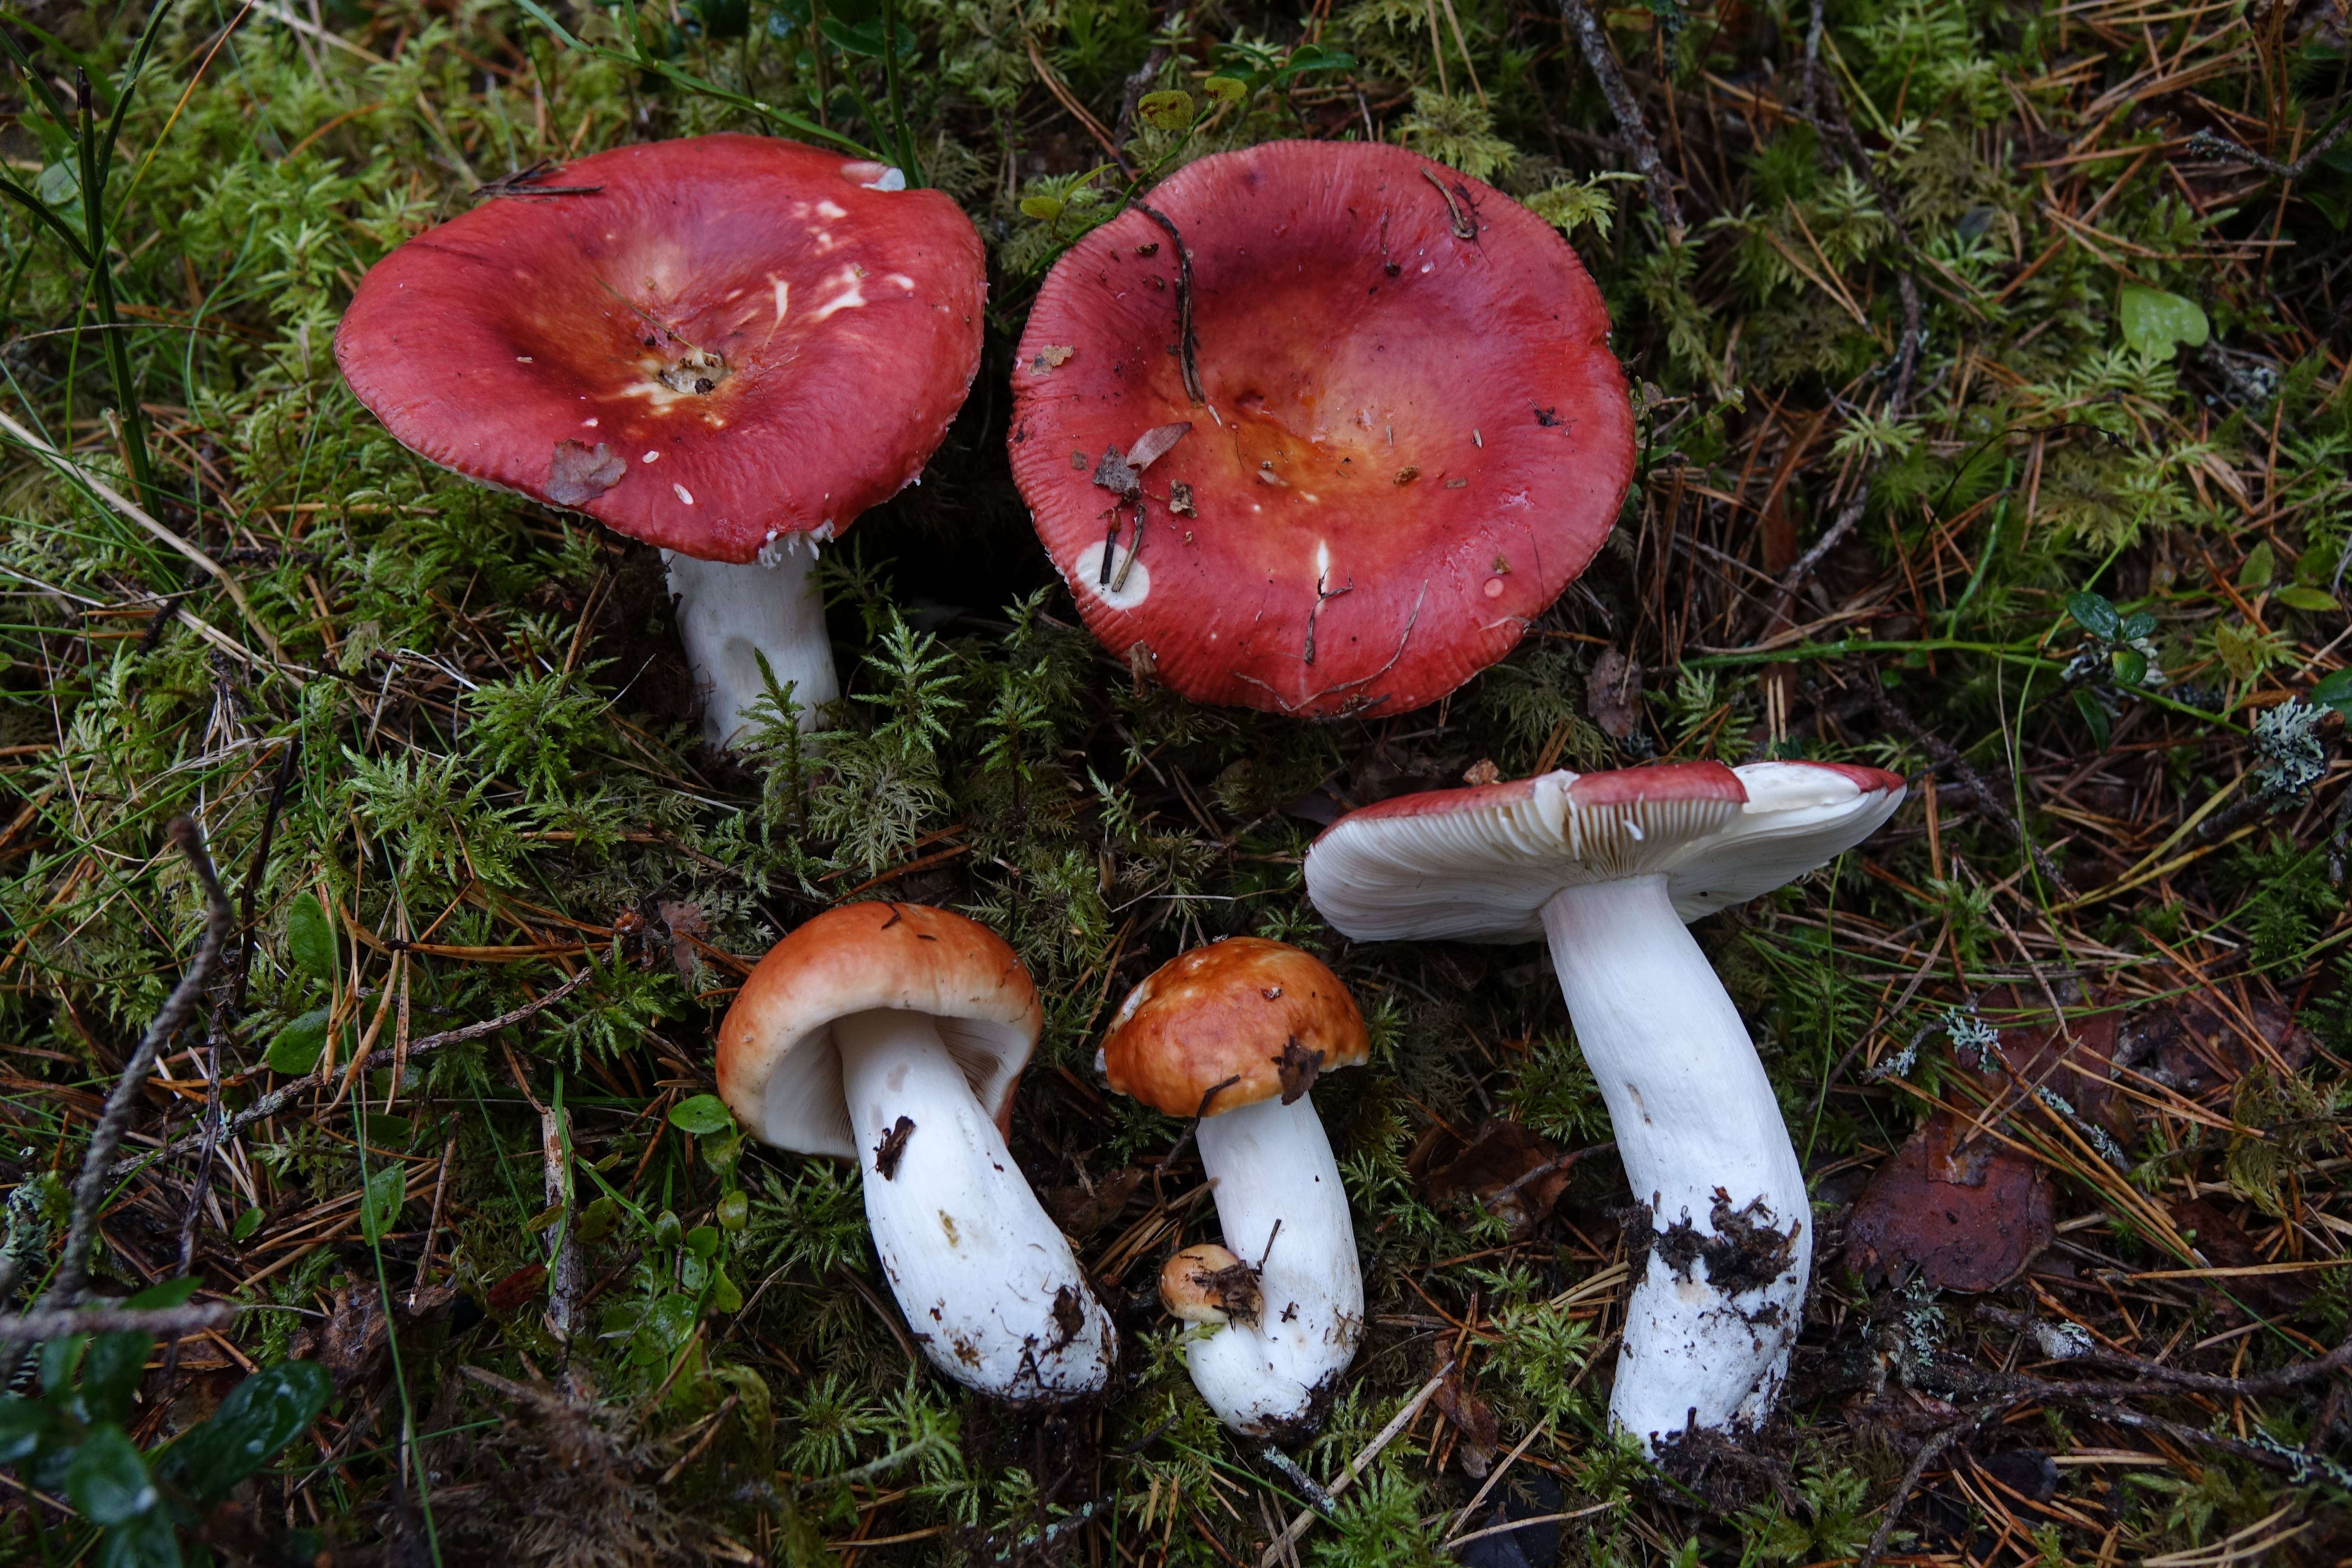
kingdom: Fungi
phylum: Basidiomycota
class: Agaricomycetes
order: Russulales
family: Russulaceae
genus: Russula
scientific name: Russula paludosa
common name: Hintapink
